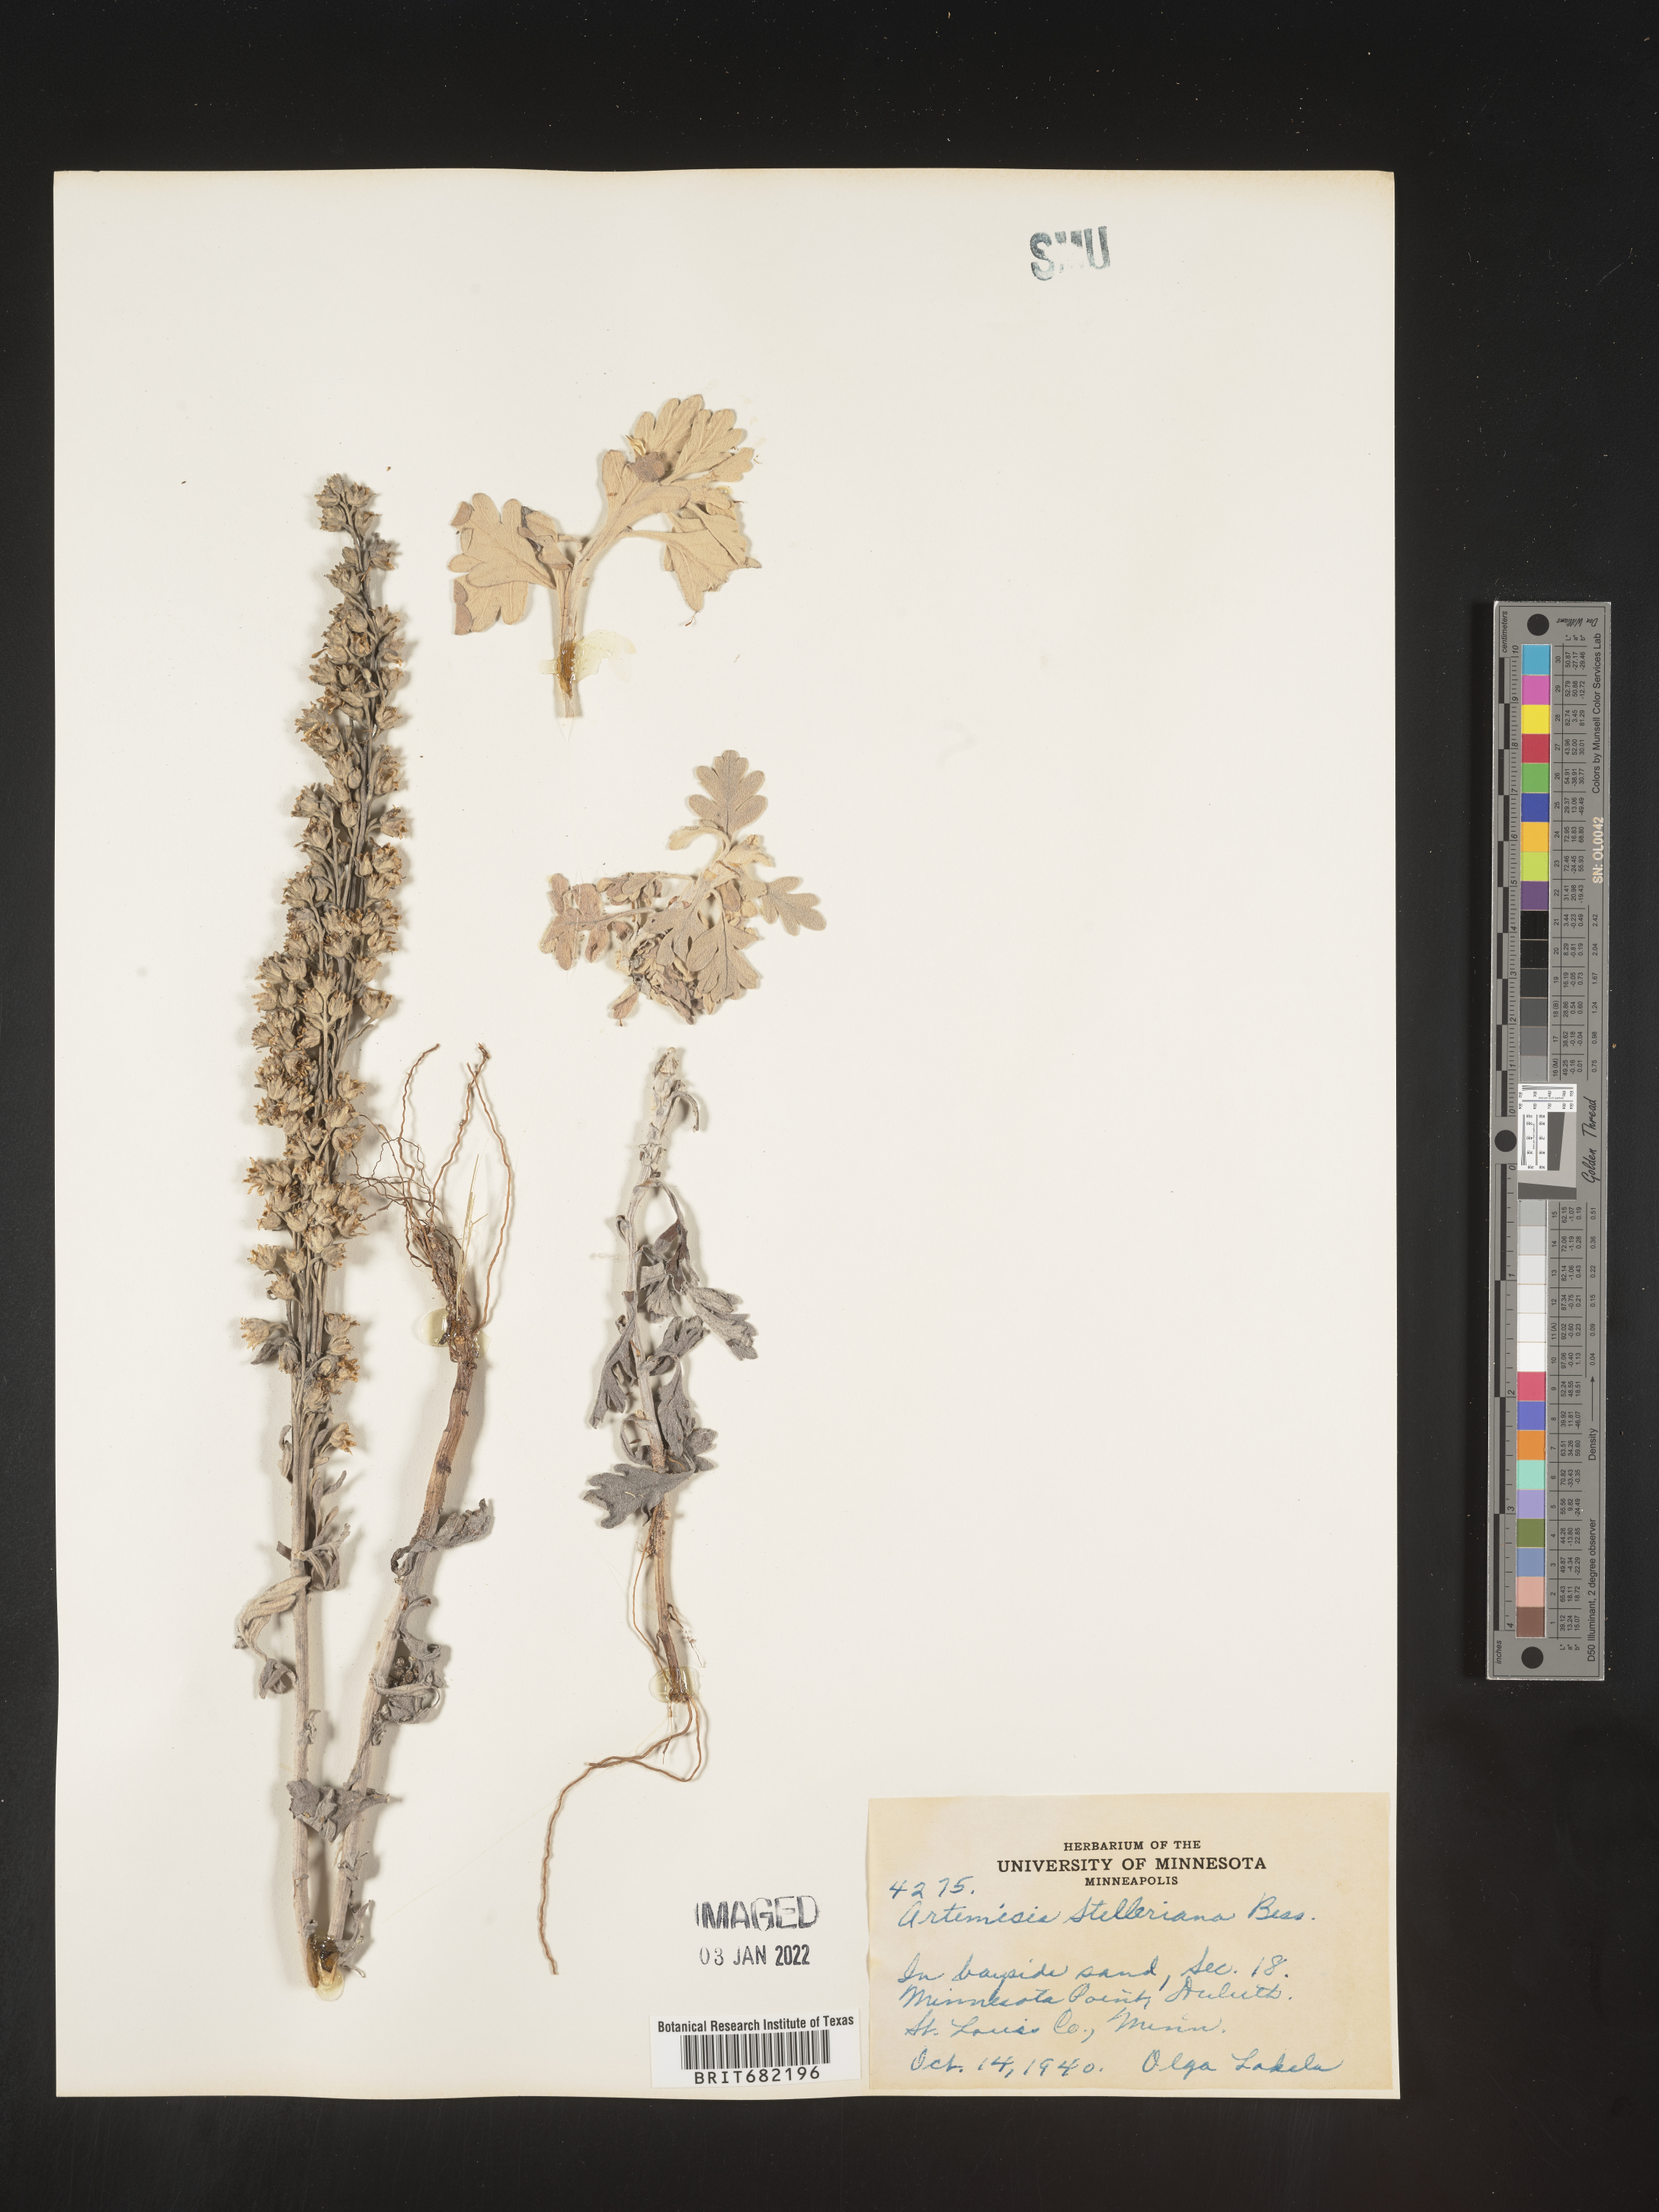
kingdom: Plantae
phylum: Tracheophyta
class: Magnoliopsida
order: Asterales
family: Asteraceae
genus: Artemisia
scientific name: Artemisia stelleriana
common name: Beach wormwood
